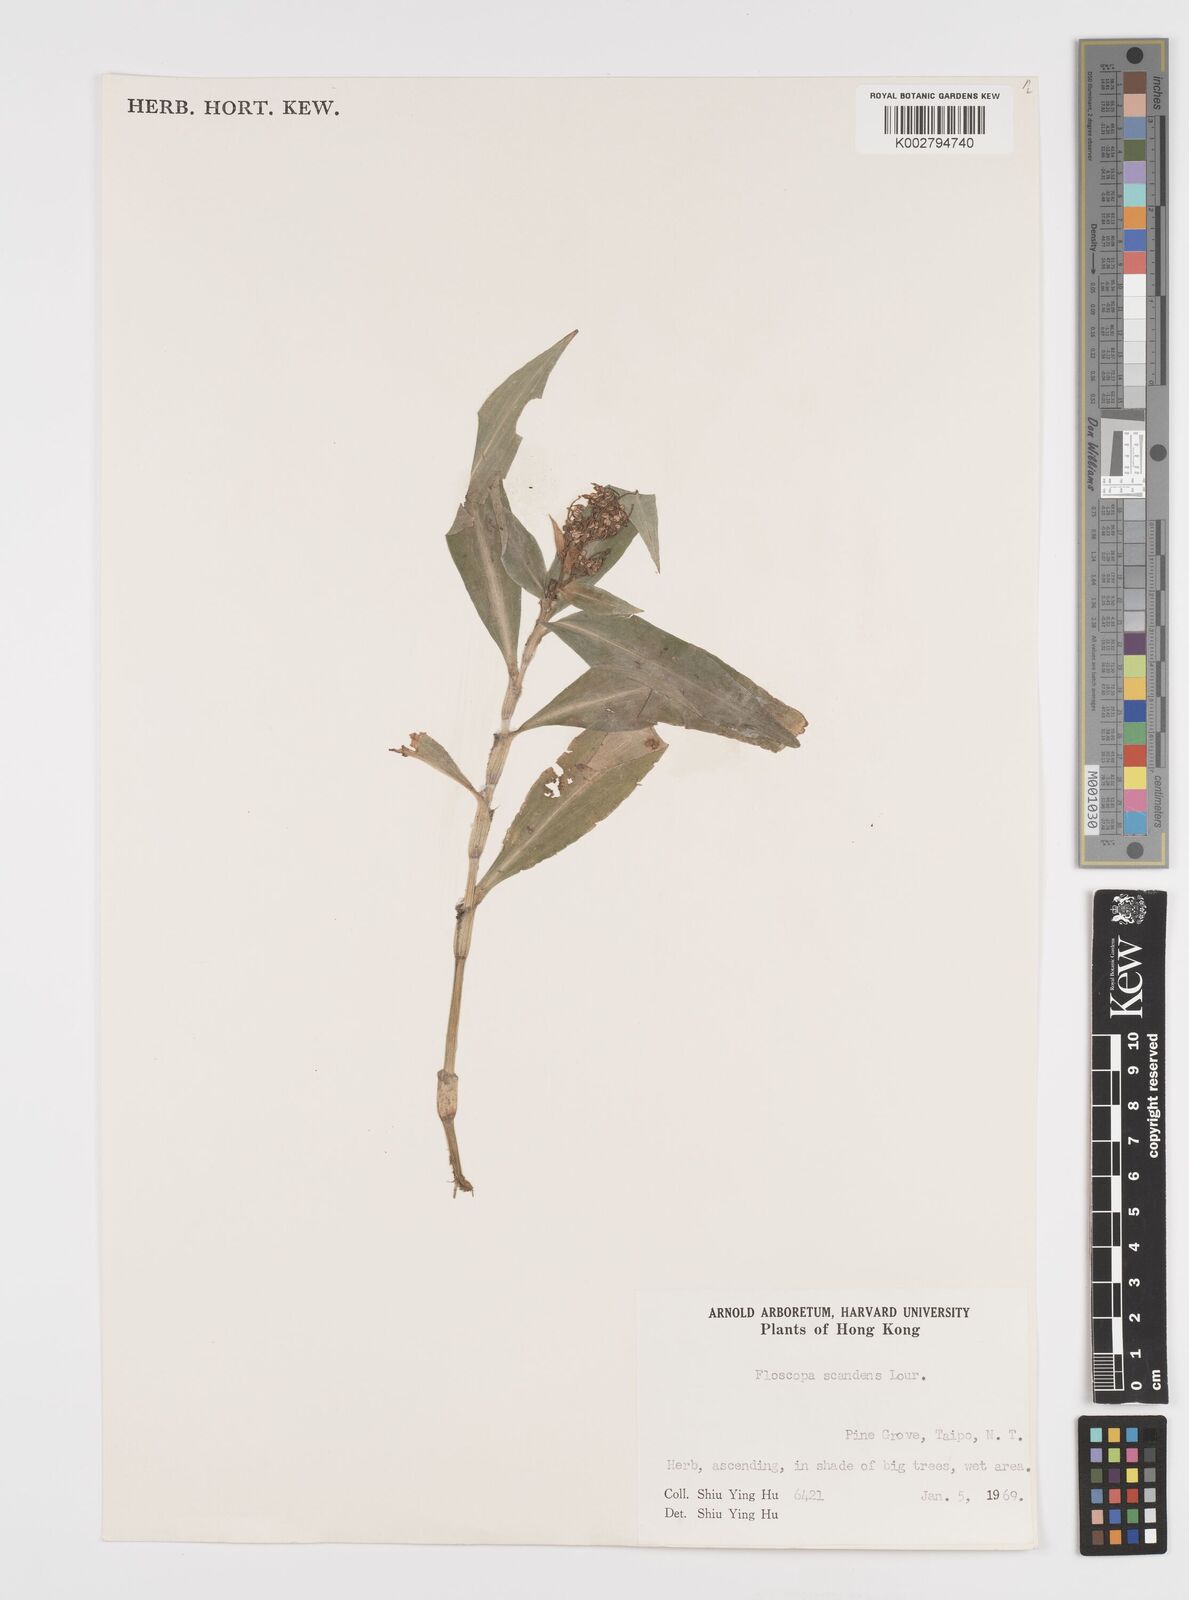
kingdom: Plantae
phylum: Tracheophyta
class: Liliopsida
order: Commelinales
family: Commelinaceae
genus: Floscopa
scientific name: Floscopa scandens
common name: Climbing flower cup
